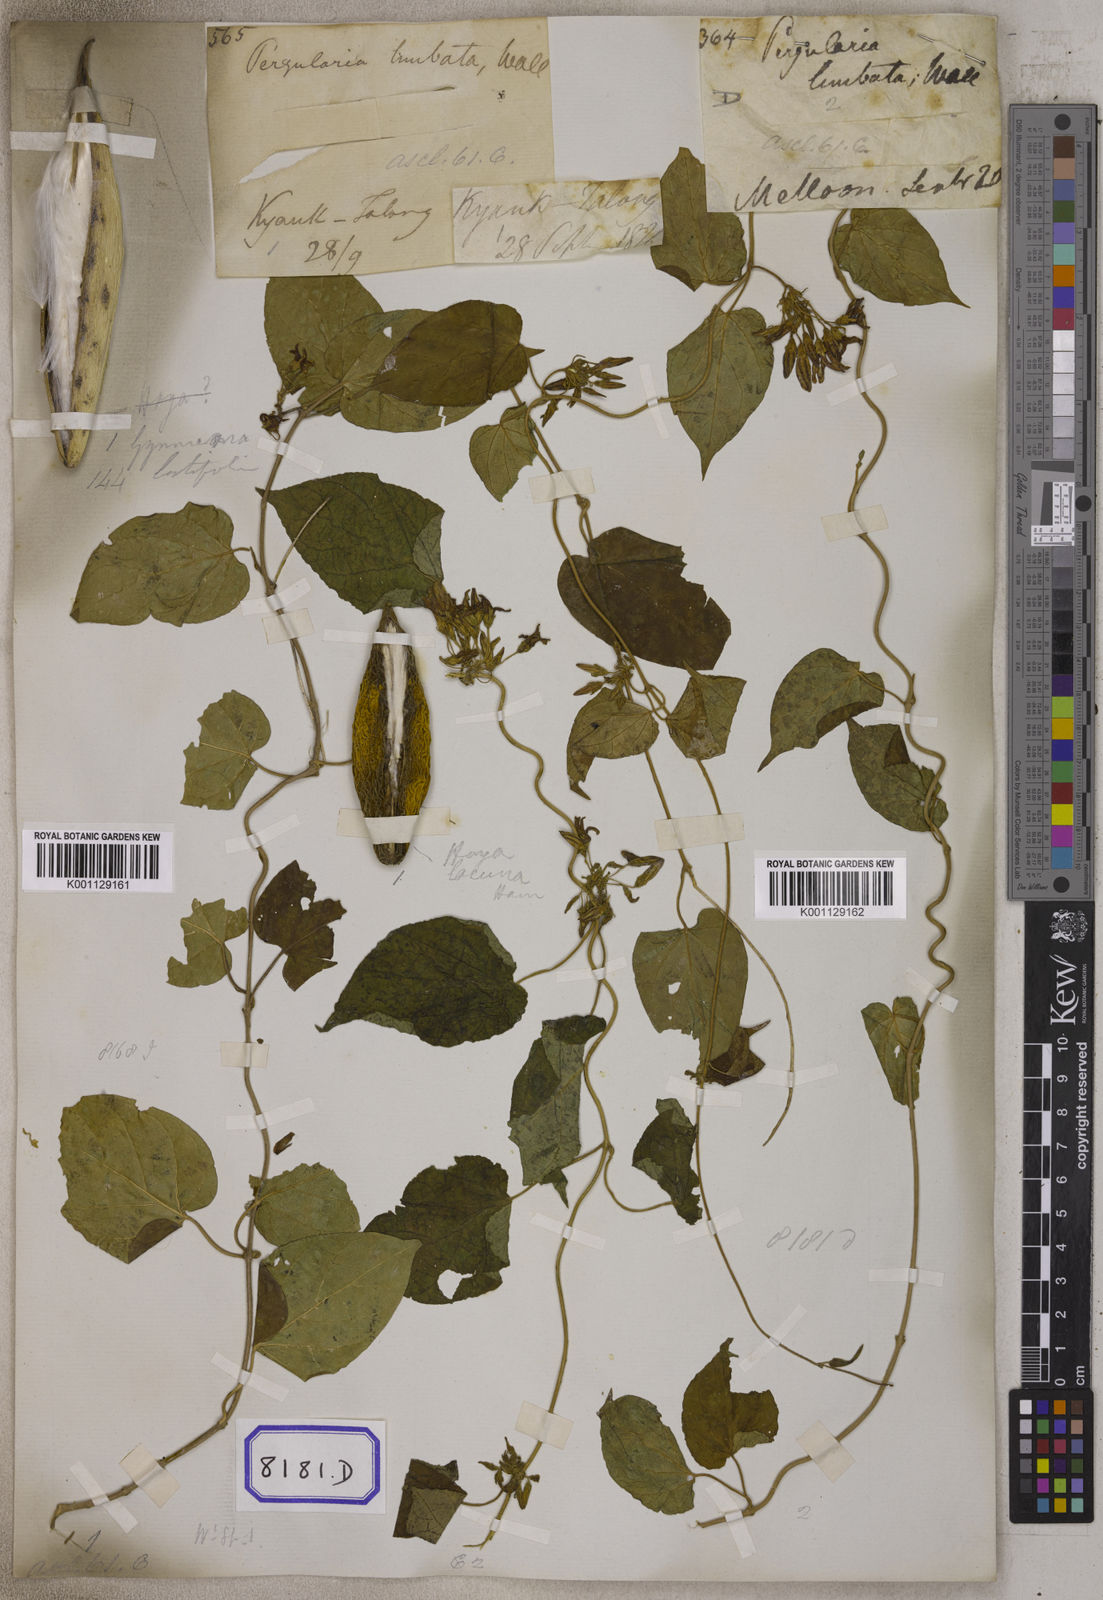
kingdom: Plantae
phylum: Tracheophyta
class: Magnoliopsida
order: Gentianales
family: Apocynaceae
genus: Telosma
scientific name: Telosma pallida
